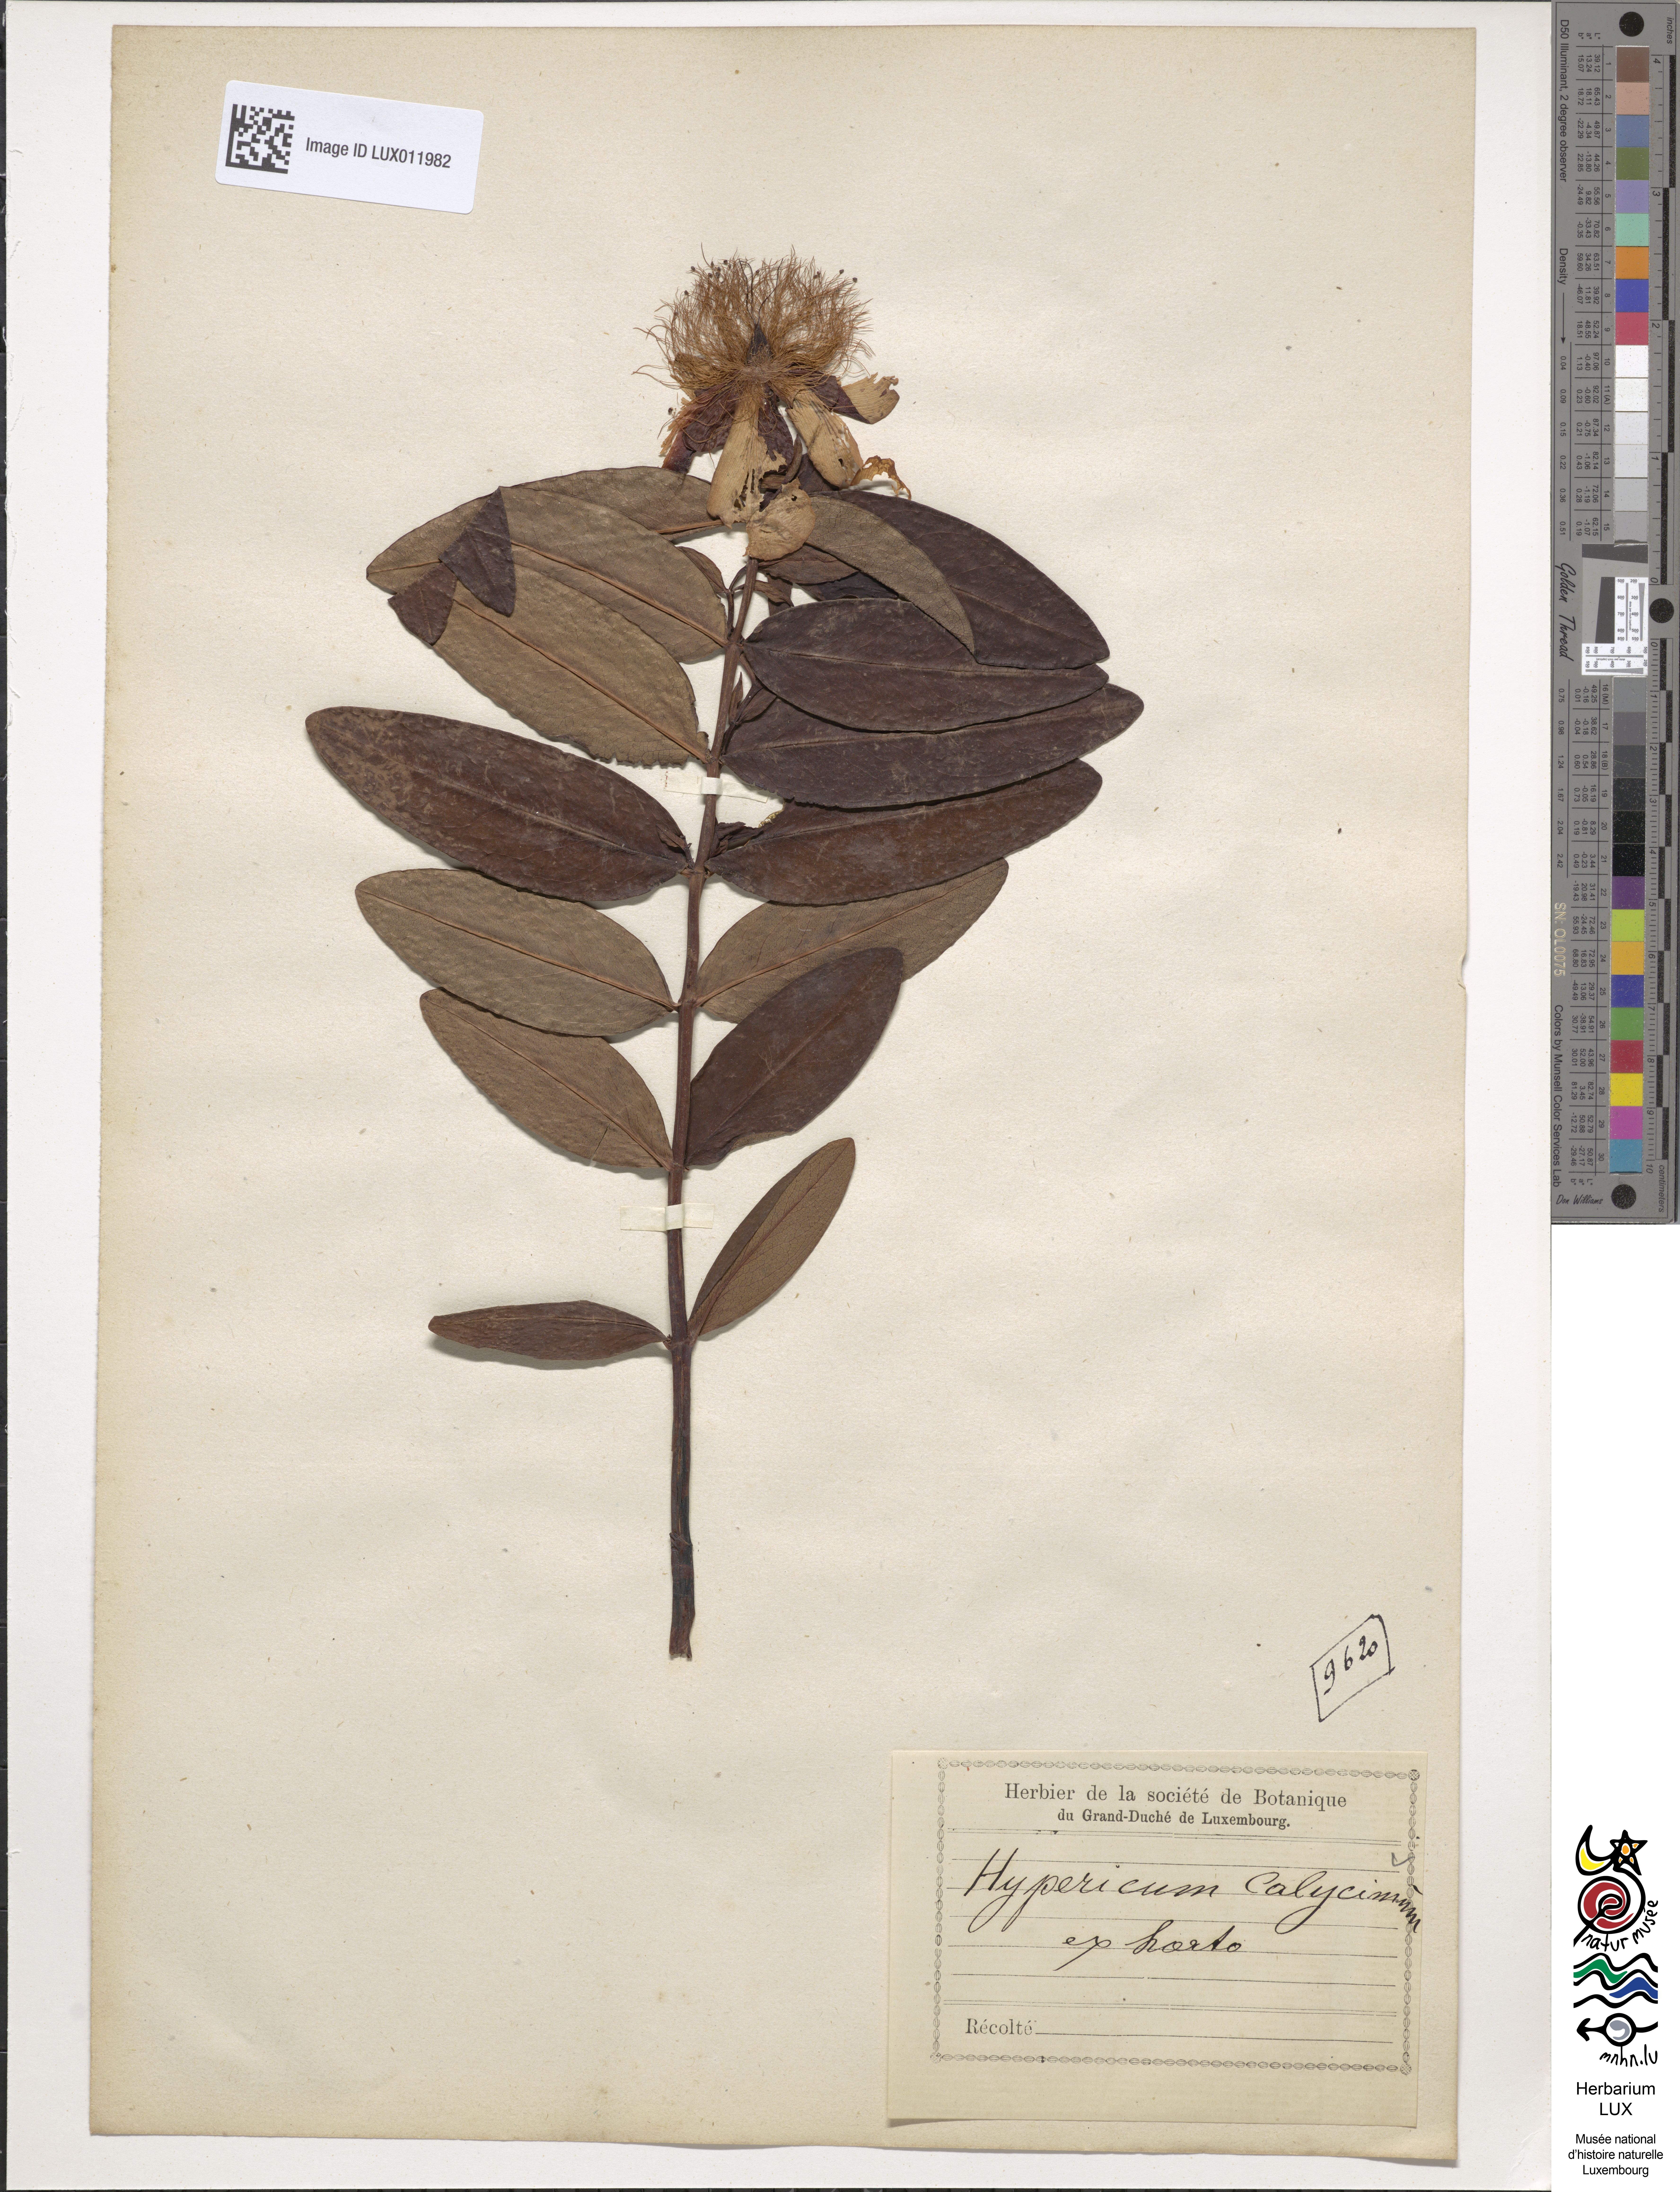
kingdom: Plantae
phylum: Tracheophyta
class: Magnoliopsida
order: Malpighiales
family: Hypericaceae
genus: Hypericum
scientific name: Hypericum calycinum
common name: Rose-of-sharon
